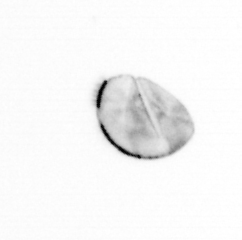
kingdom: Chromista
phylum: Ochrophyta
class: Bacillariophyceae
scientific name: Bacillariophyceae
